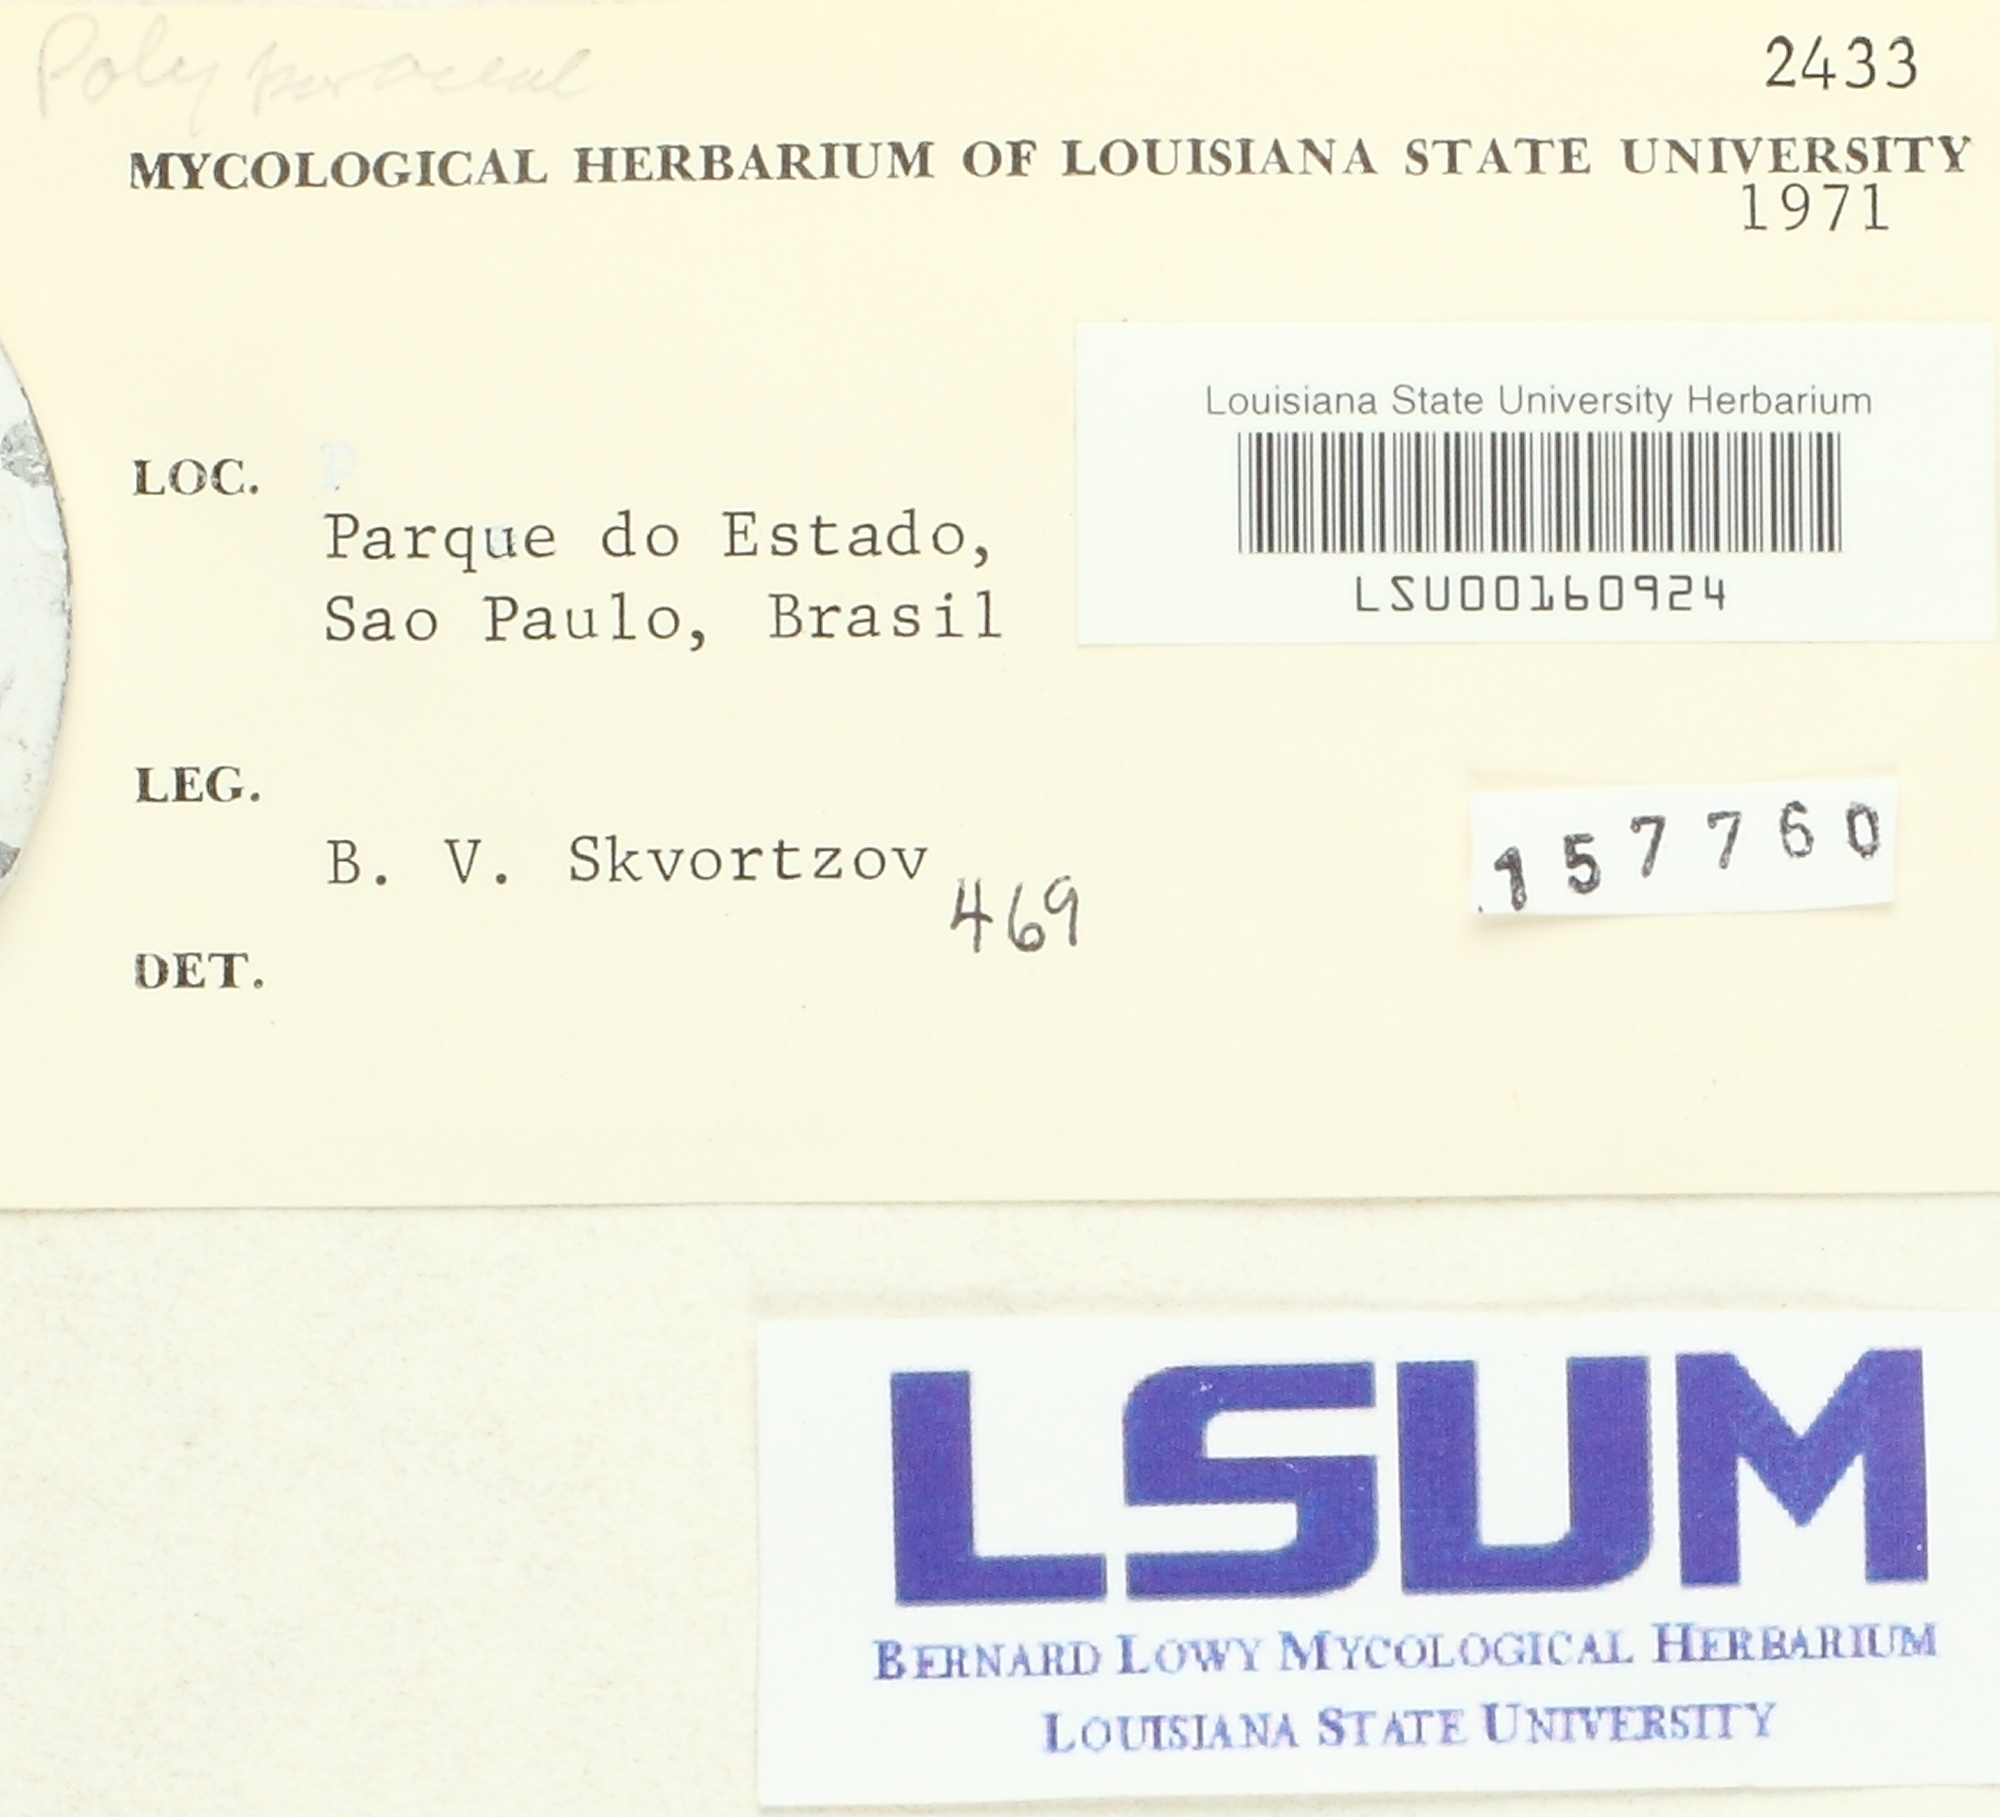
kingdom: Fungi
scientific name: Fungi
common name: Fungi
